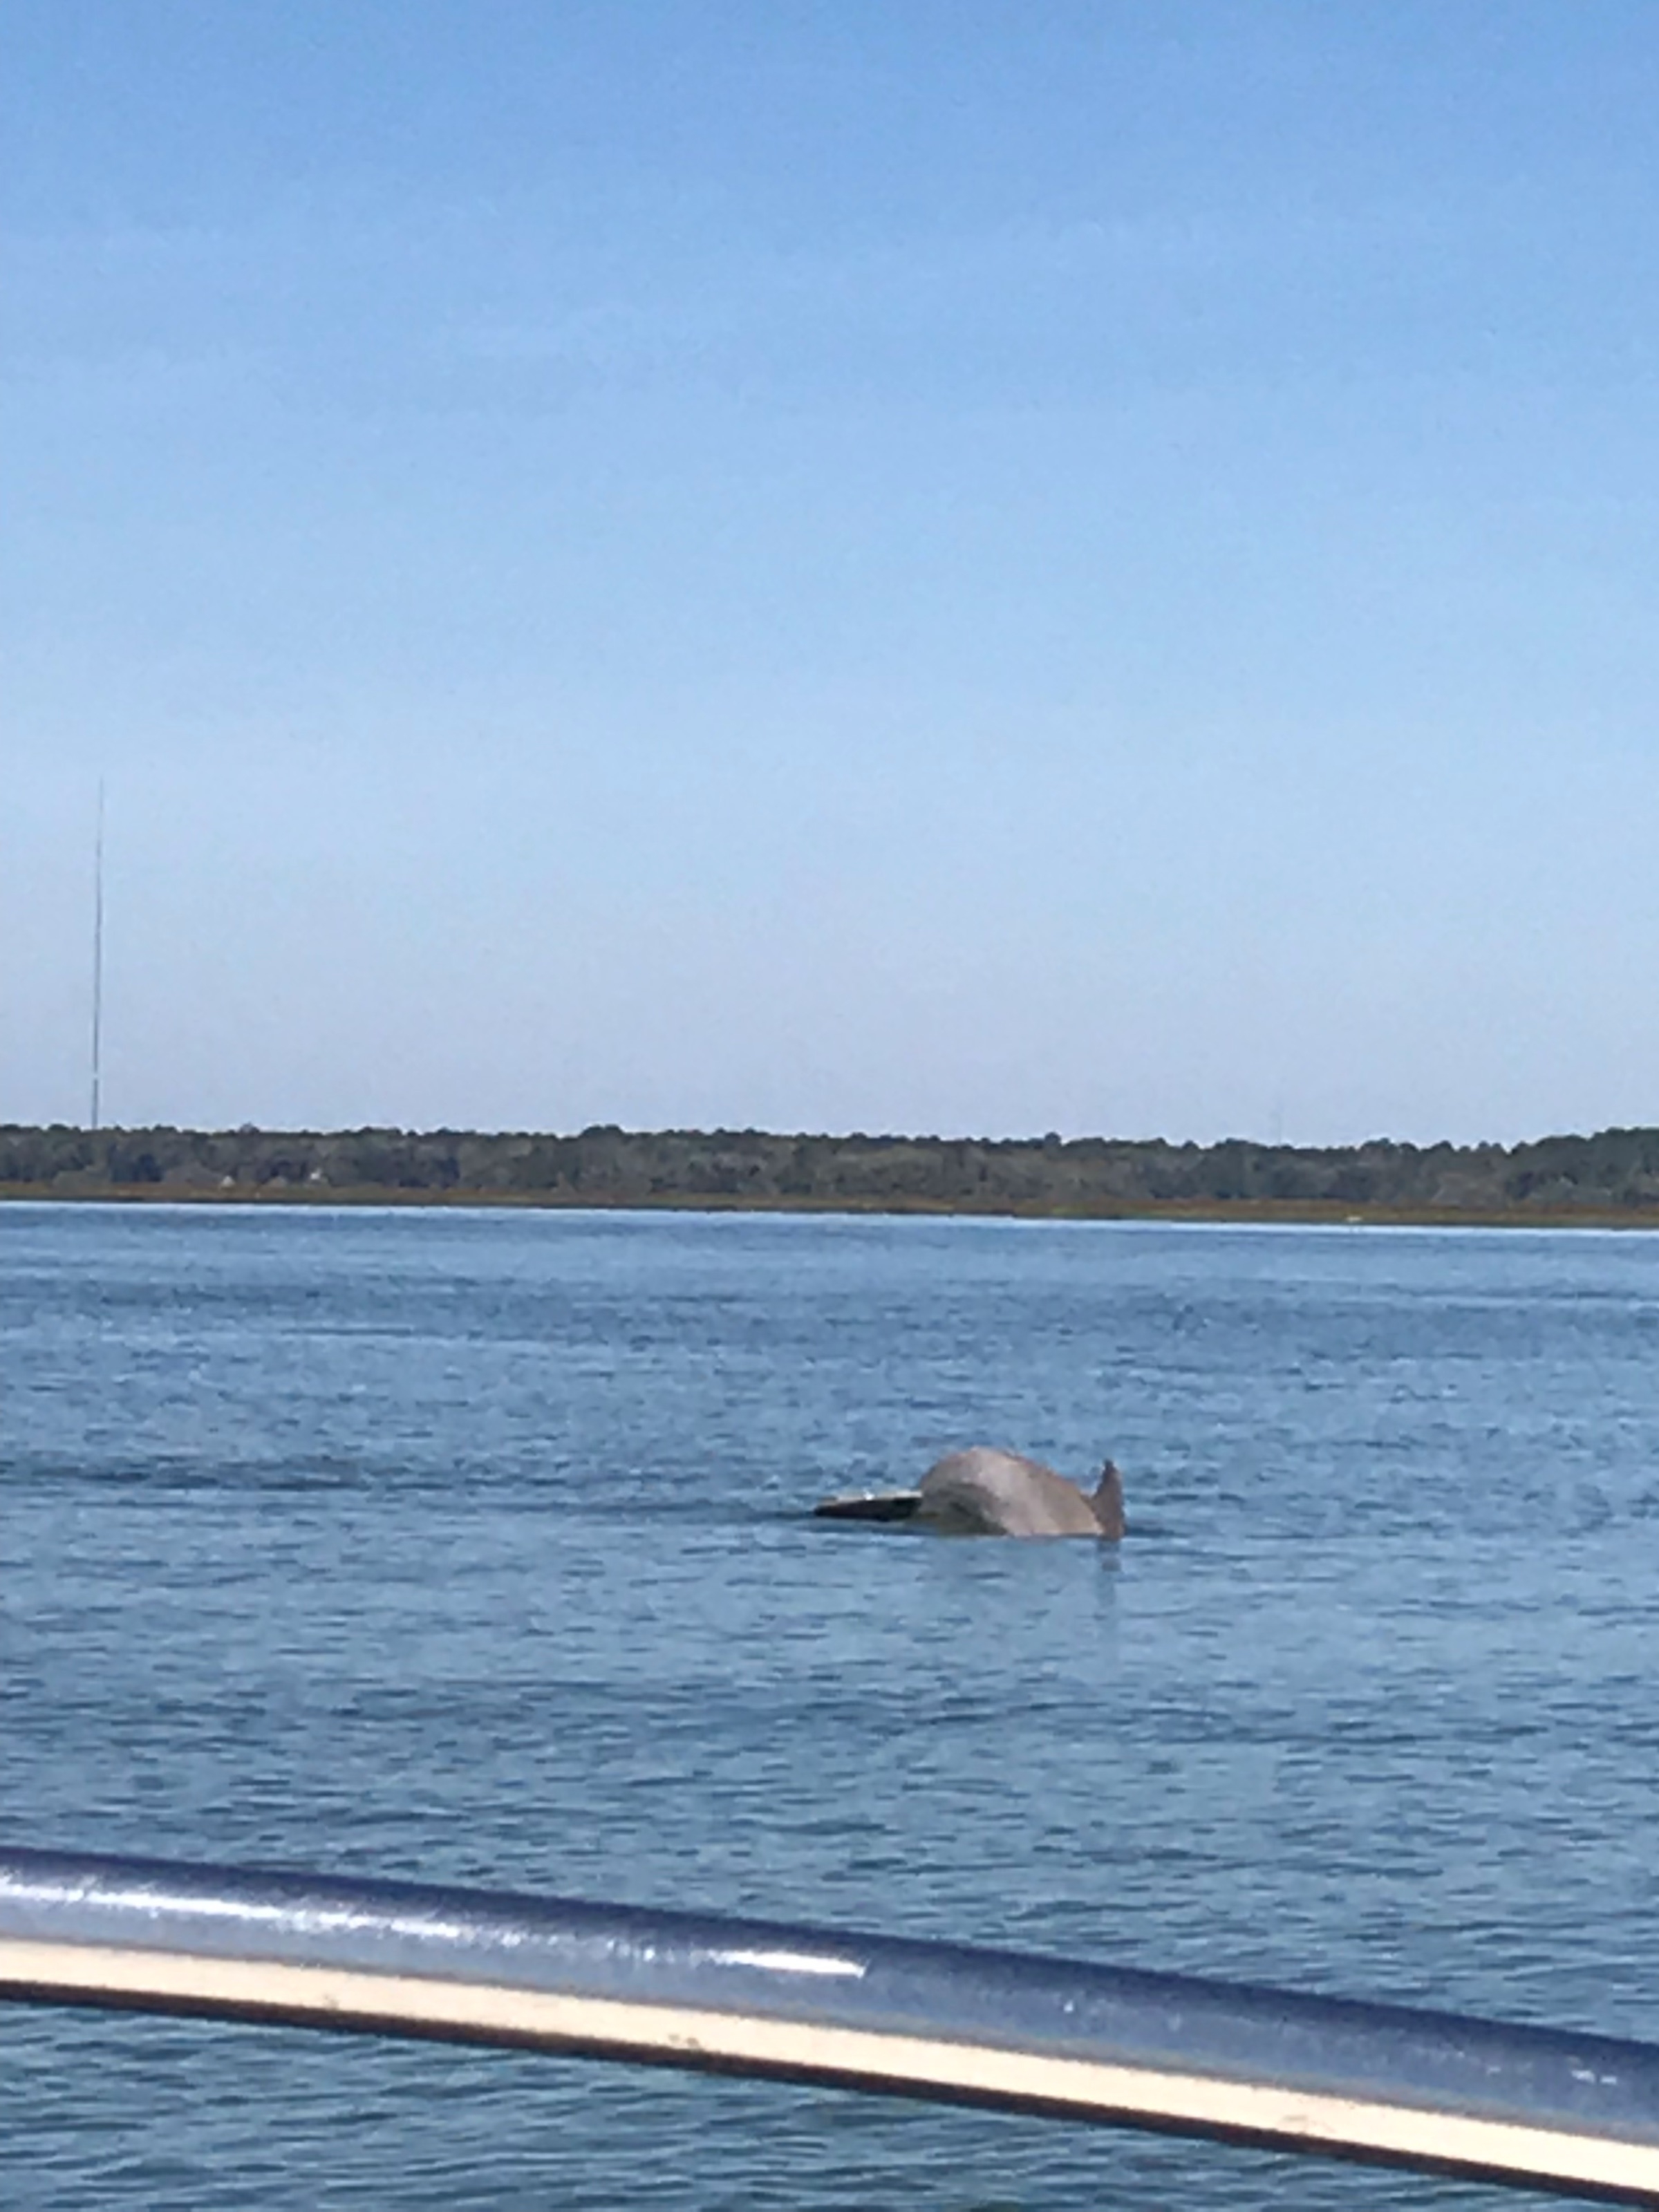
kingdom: Animalia
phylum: Chordata
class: Mammalia
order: Cetacea
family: Delphinidae
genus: Tursiops
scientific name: Tursiops truncatus
